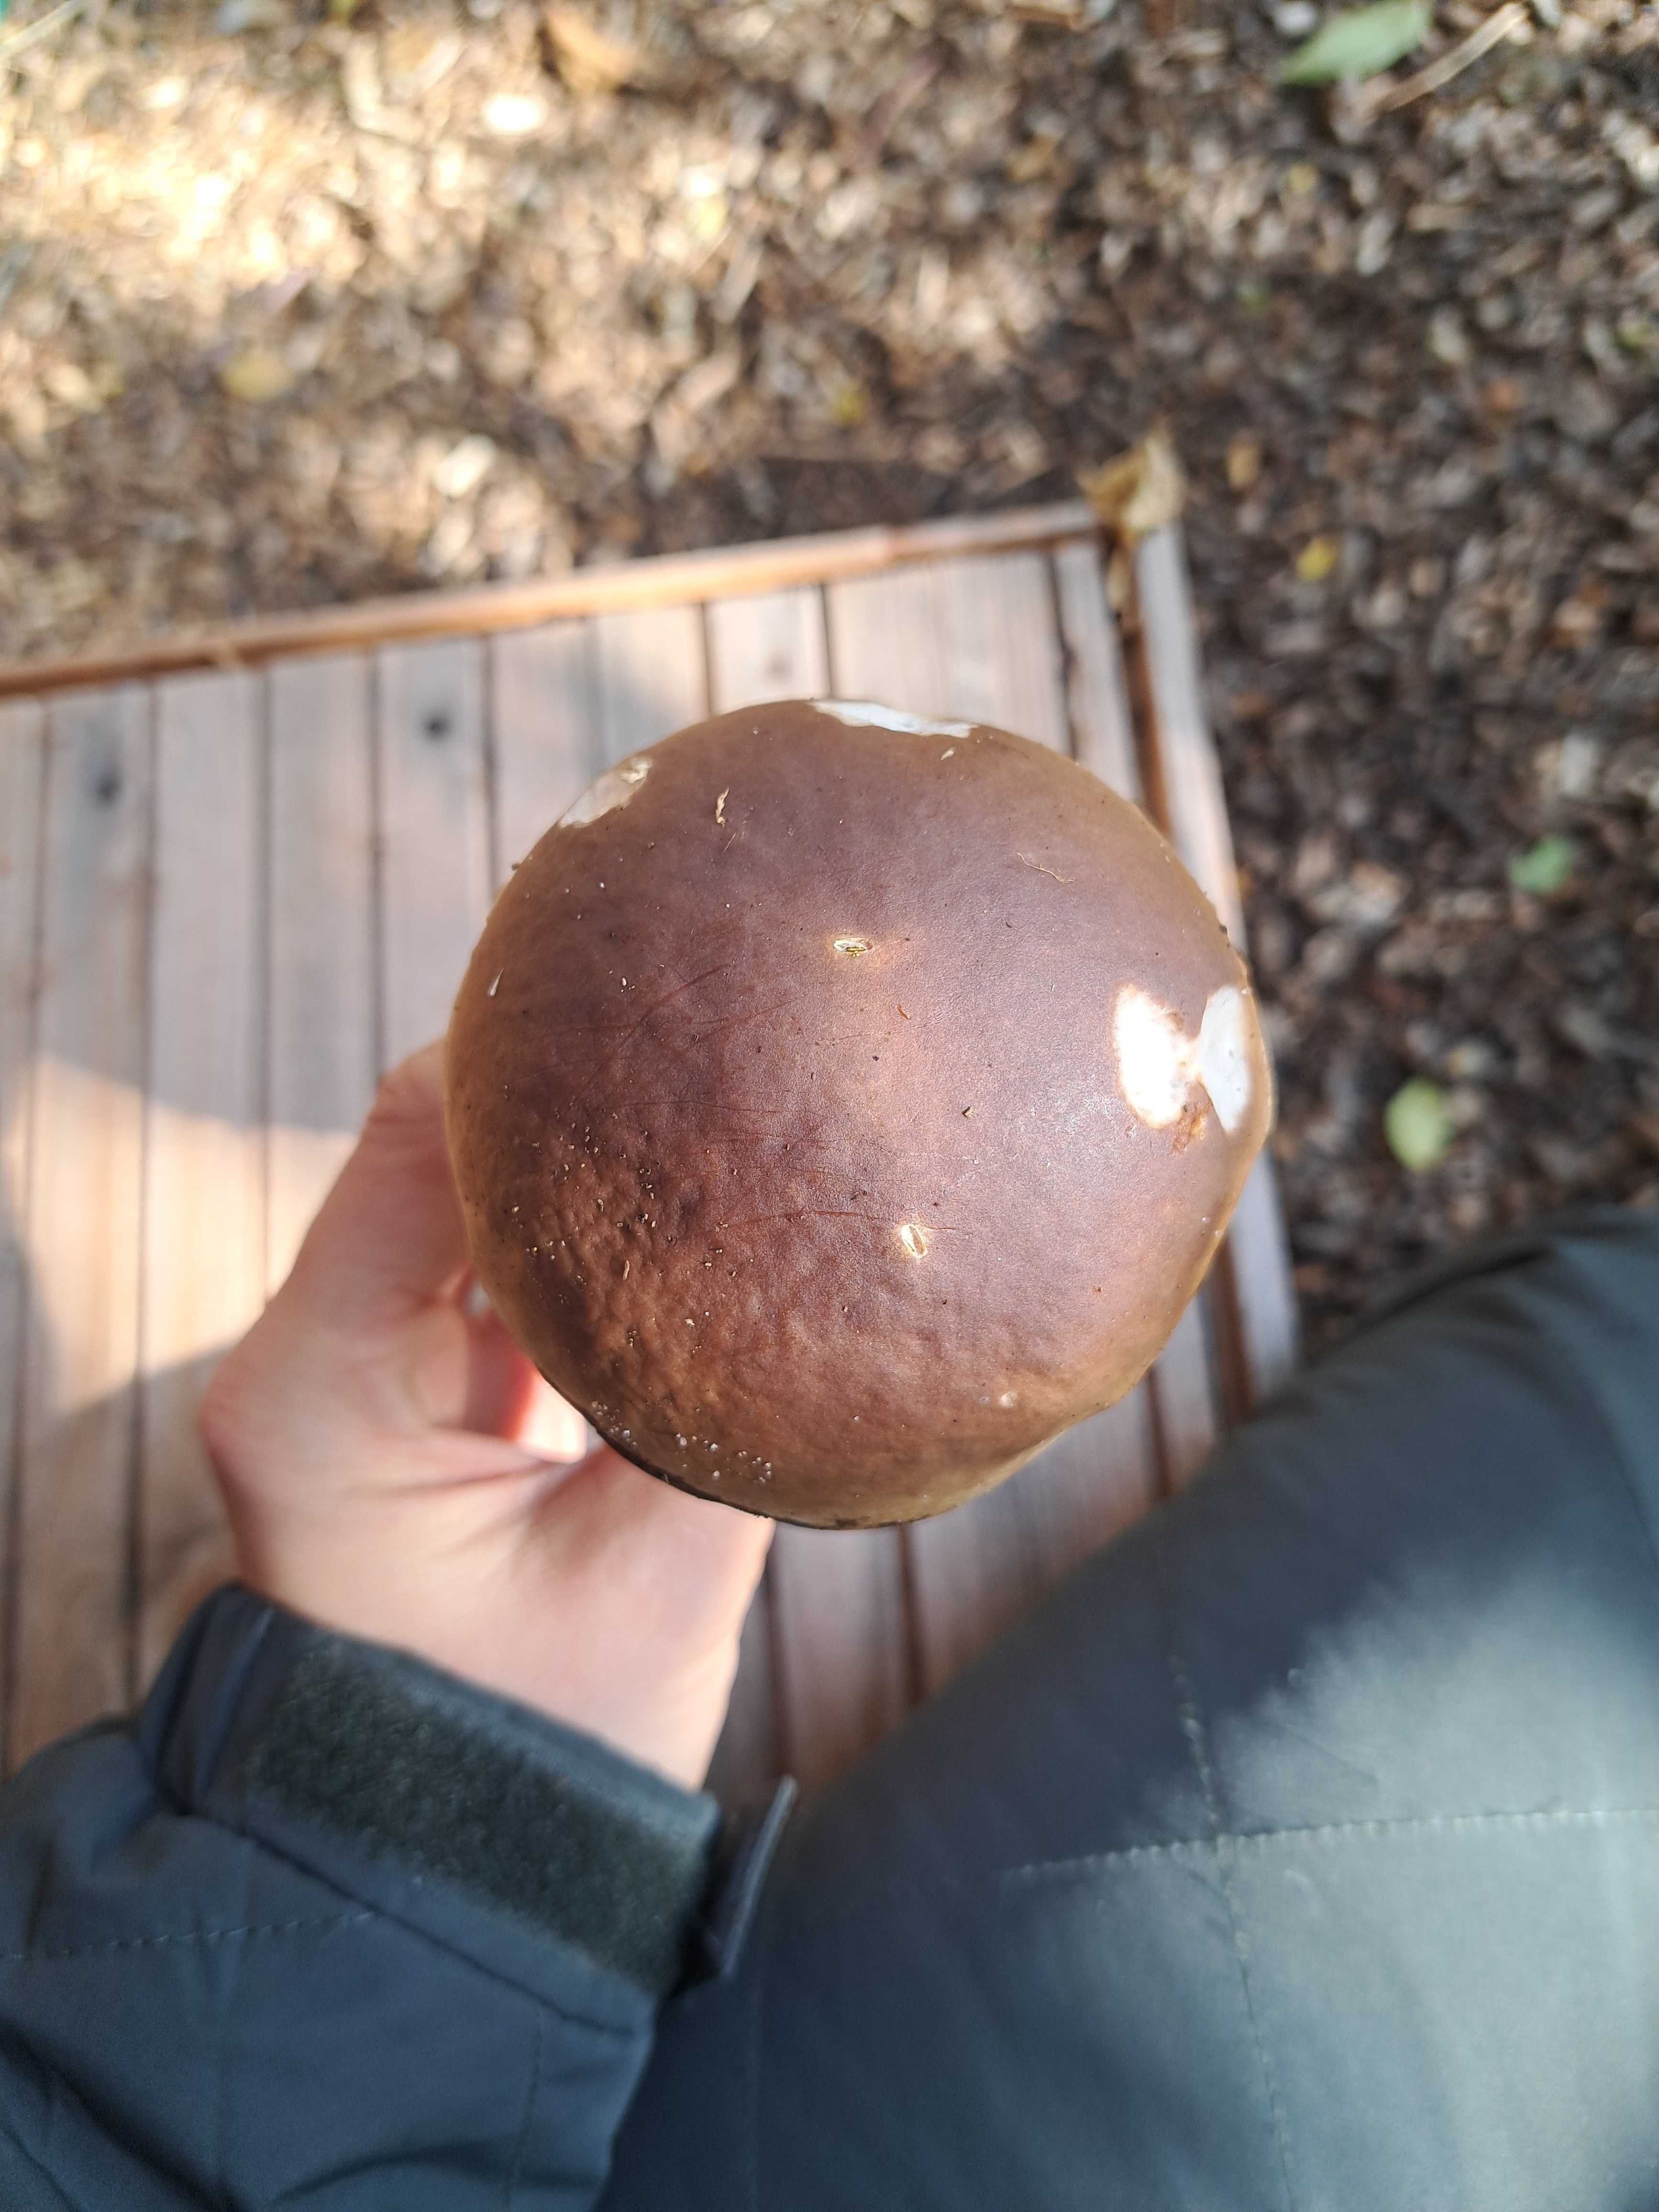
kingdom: Fungi
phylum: Basidiomycota
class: Agaricomycetes
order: Boletales
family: Boletaceae
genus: Boletus
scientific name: Boletus edulis
